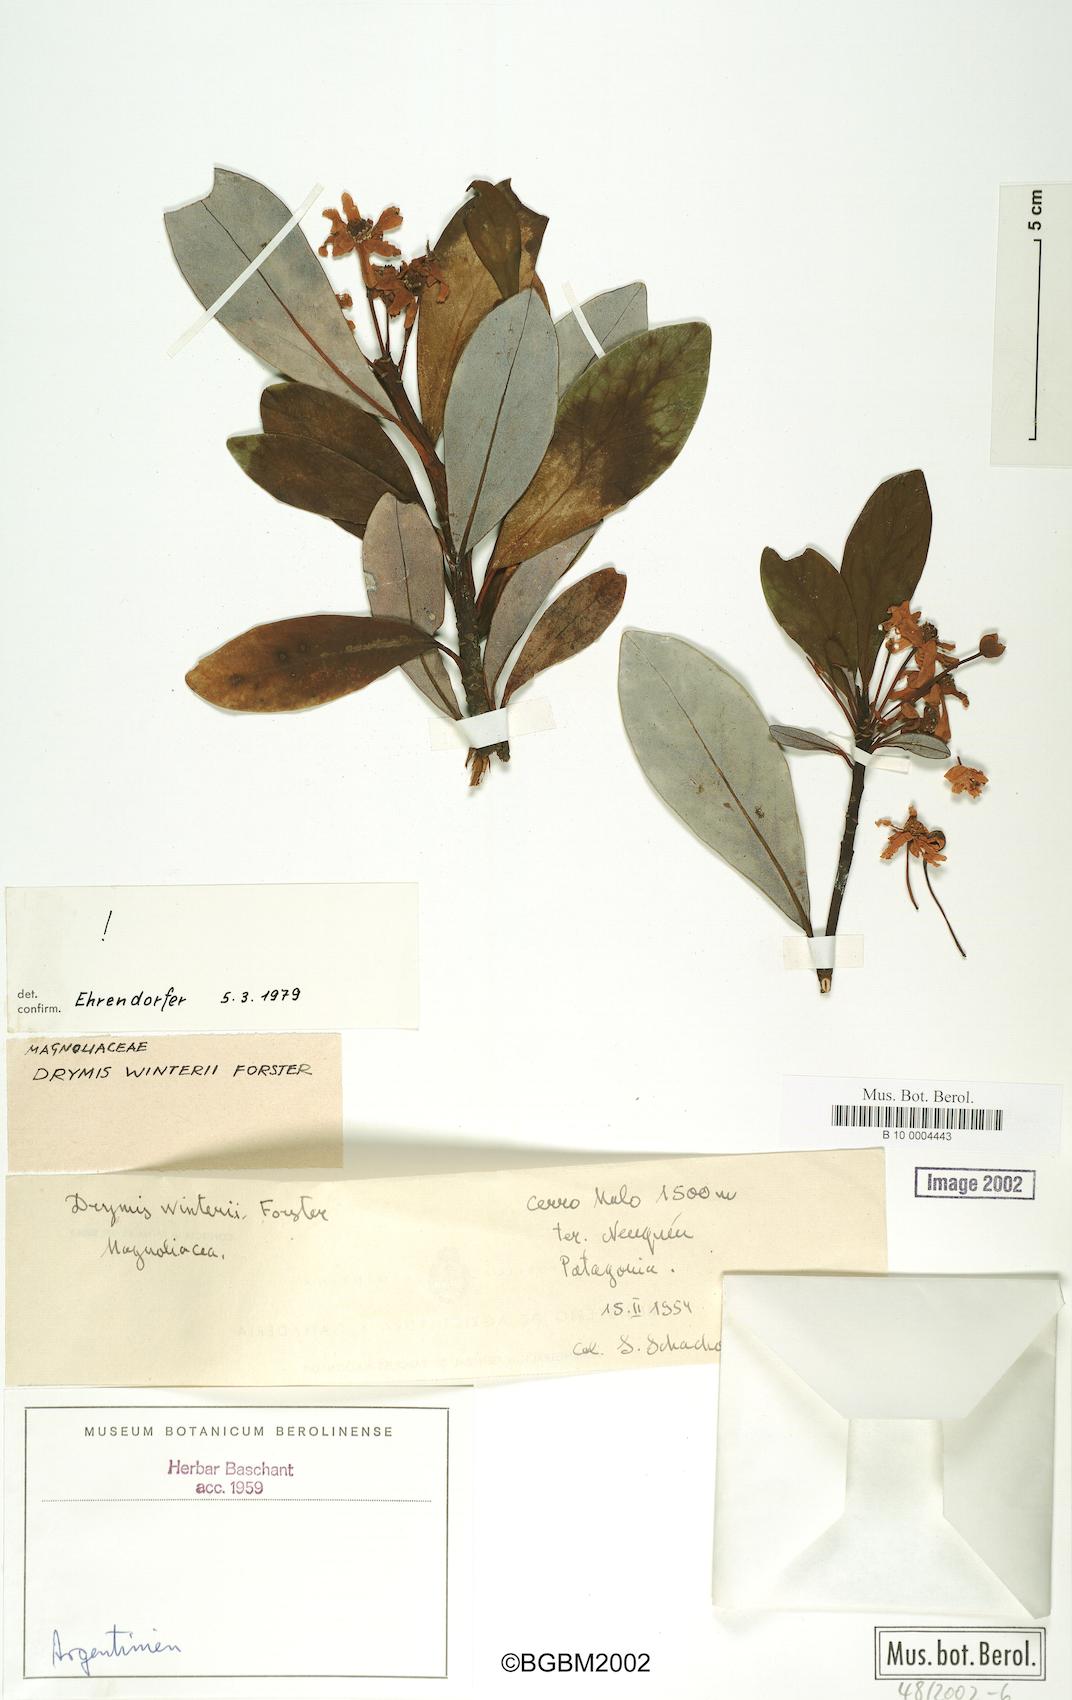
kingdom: Plantae
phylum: Tracheophyta
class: Magnoliopsida
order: Canellales
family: Winteraceae
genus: Drimys
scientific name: Drimys winteri
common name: Winter's-bark
